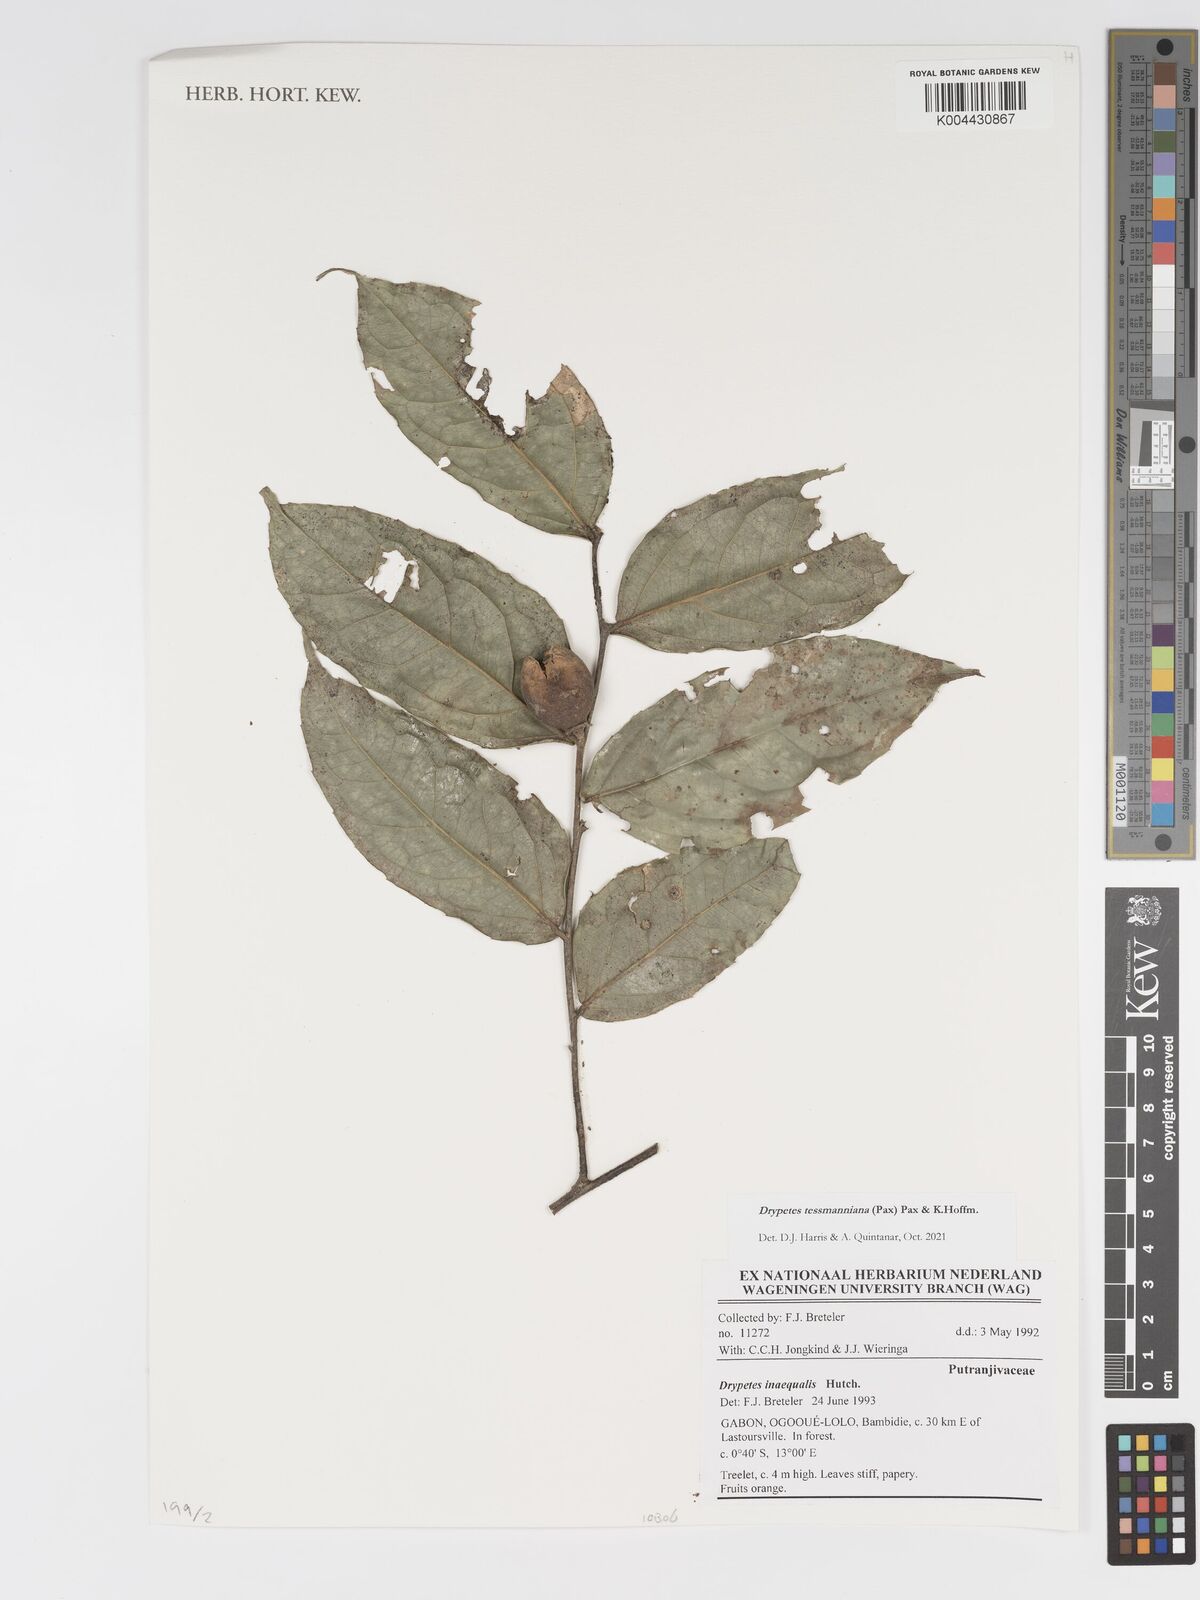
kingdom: Plantae
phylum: Tracheophyta
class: Magnoliopsida
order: Malpighiales
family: Putranjivaceae
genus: Drypetes
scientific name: Drypetes tessmanniana
